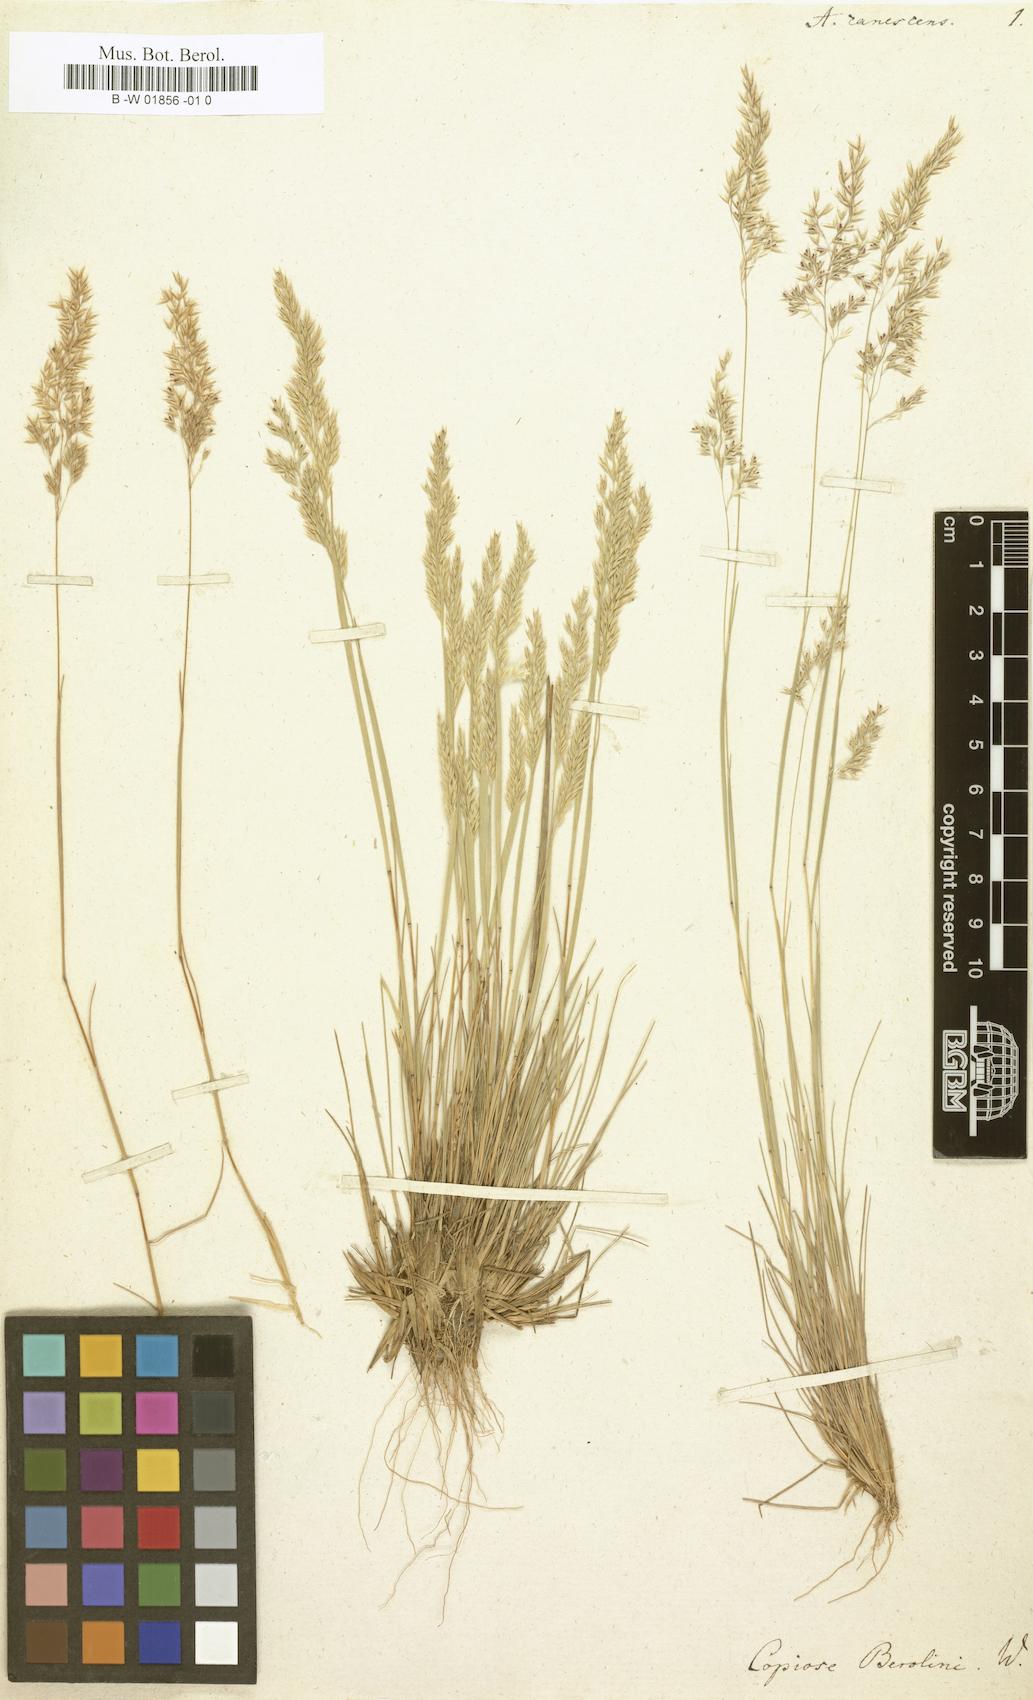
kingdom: Plantae
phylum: Tracheophyta
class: Liliopsida
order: Poales
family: Poaceae
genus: Corynephorus
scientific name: Corynephorus canescens
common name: Grey hair-grass
